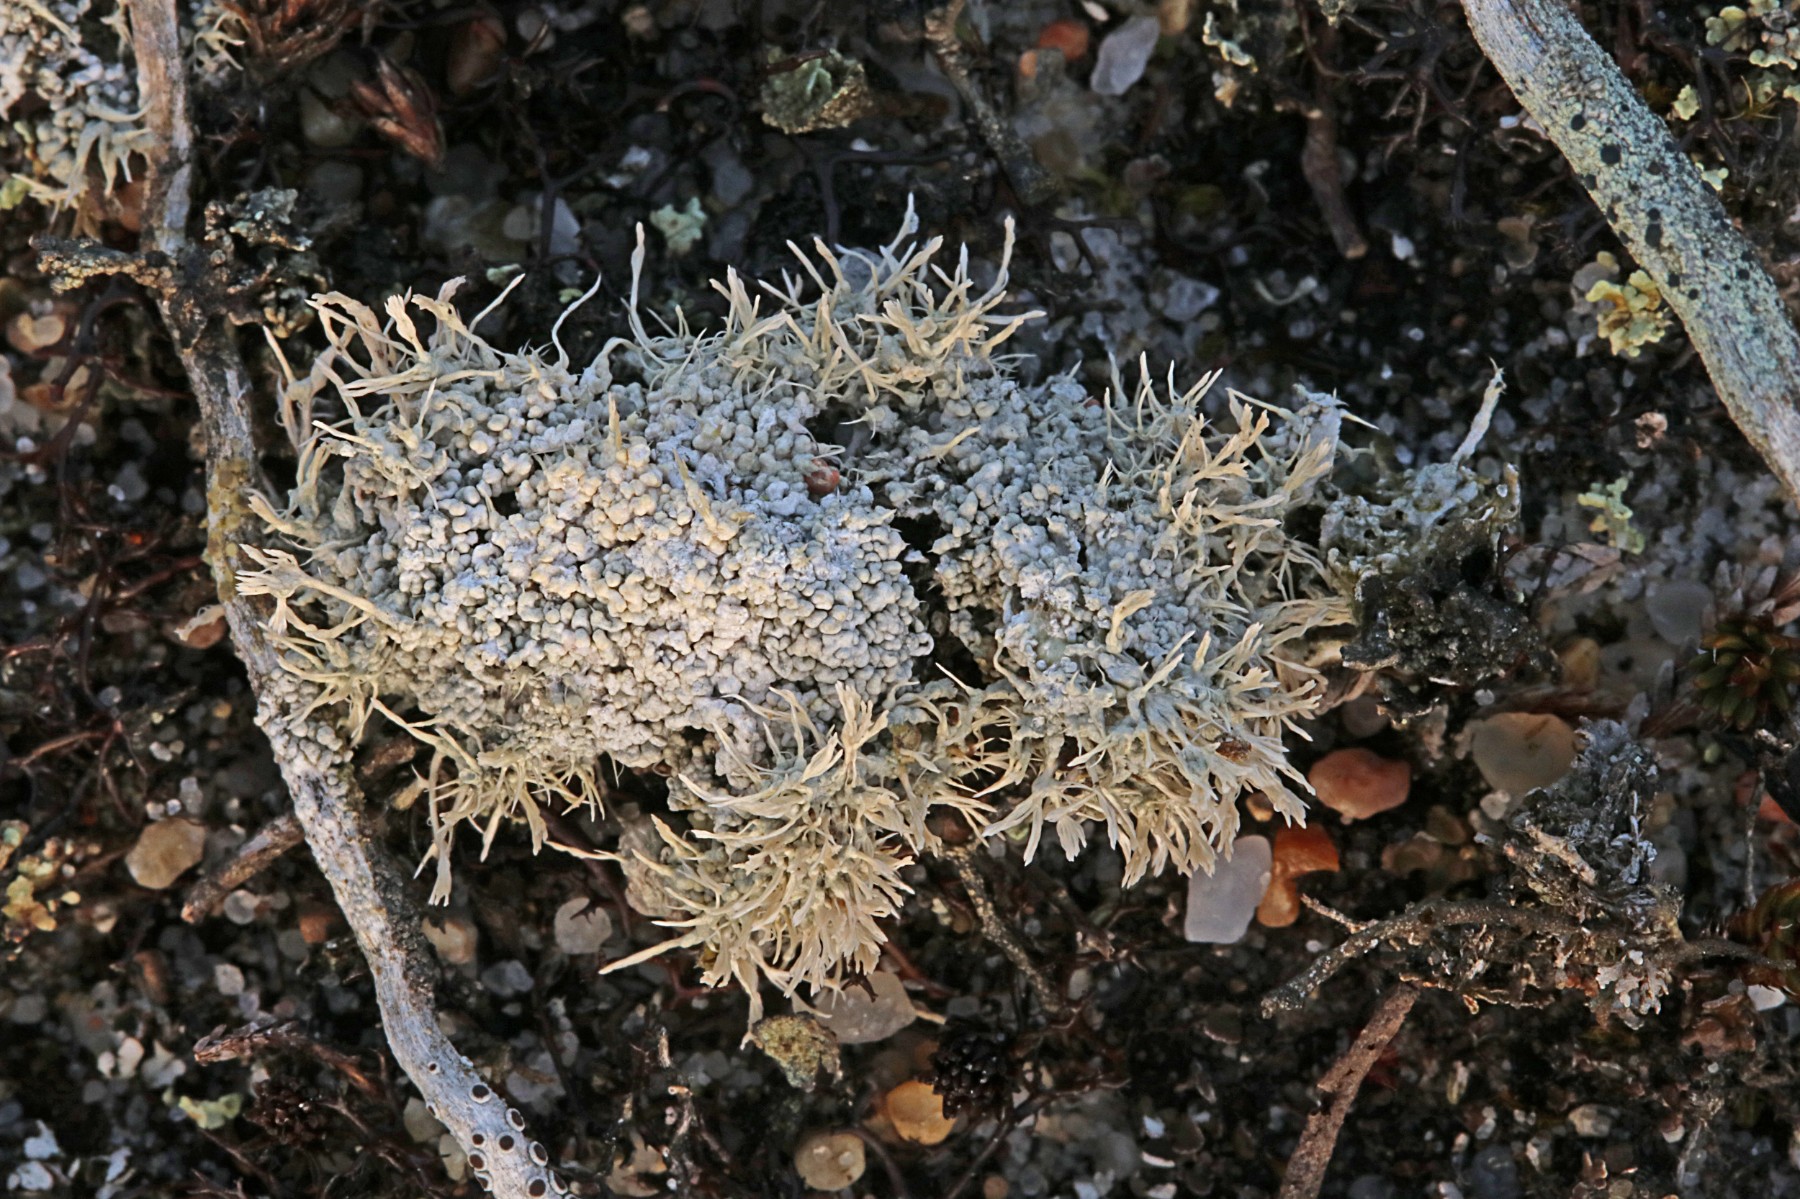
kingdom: Fungi
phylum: Ascomycota
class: Lecanoromycetes
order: Pertusariales
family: Ochrolechiaceae
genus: Ochrolechia
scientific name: Ochrolechia frigida
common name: fjeld-blegskivelav
